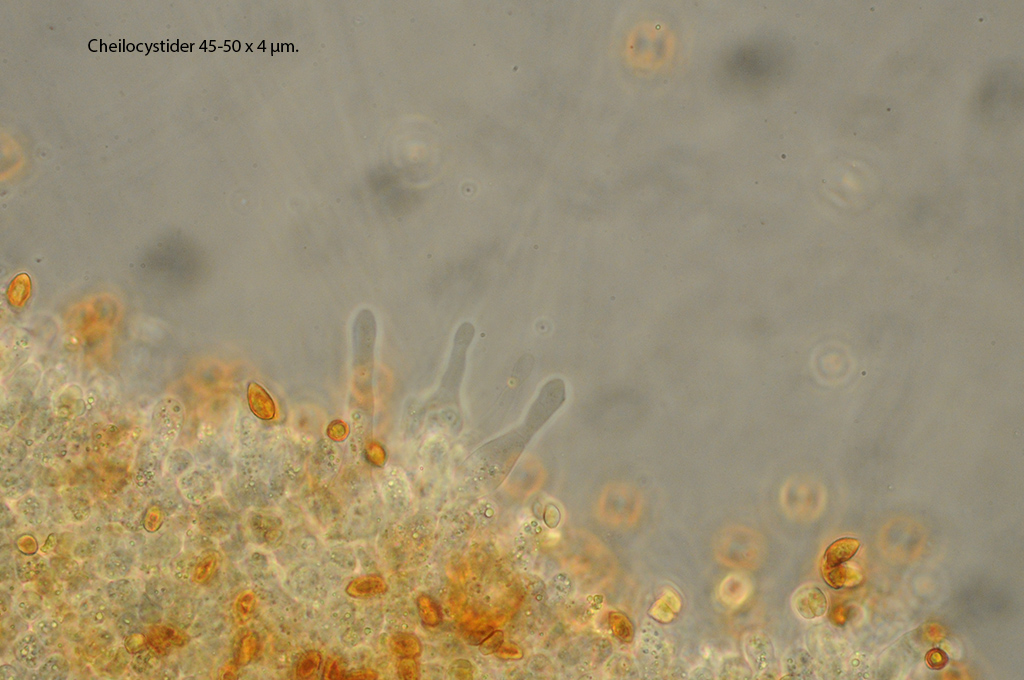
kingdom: Fungi
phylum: Basidiomycota
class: Agaricomycetes
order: Agaricales
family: Hymenogastraceae
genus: Galerina
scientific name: Galerina marginata
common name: randbæltet hjelmhat
